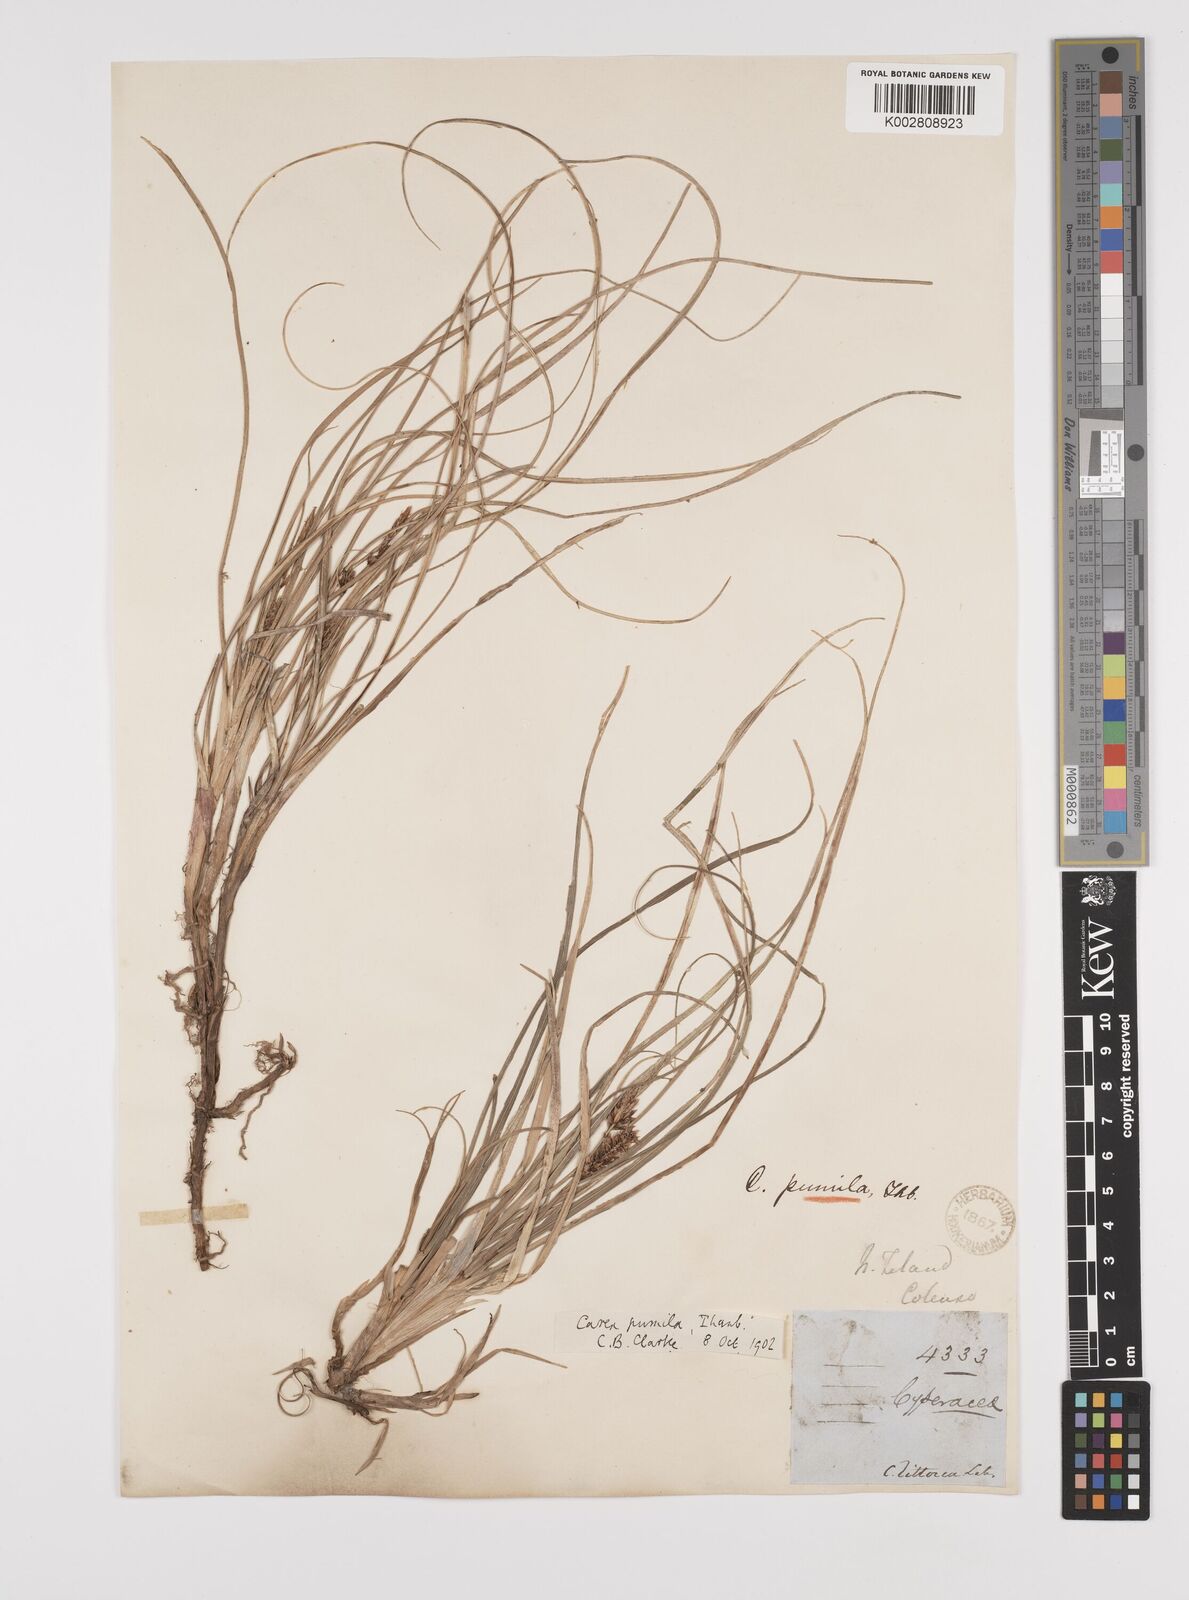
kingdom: Plantae
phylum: Tracheophyta
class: Liliopsida
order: Poales
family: Cyperaceae
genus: Carex
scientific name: Carex pumila
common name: Dwarf sedge
